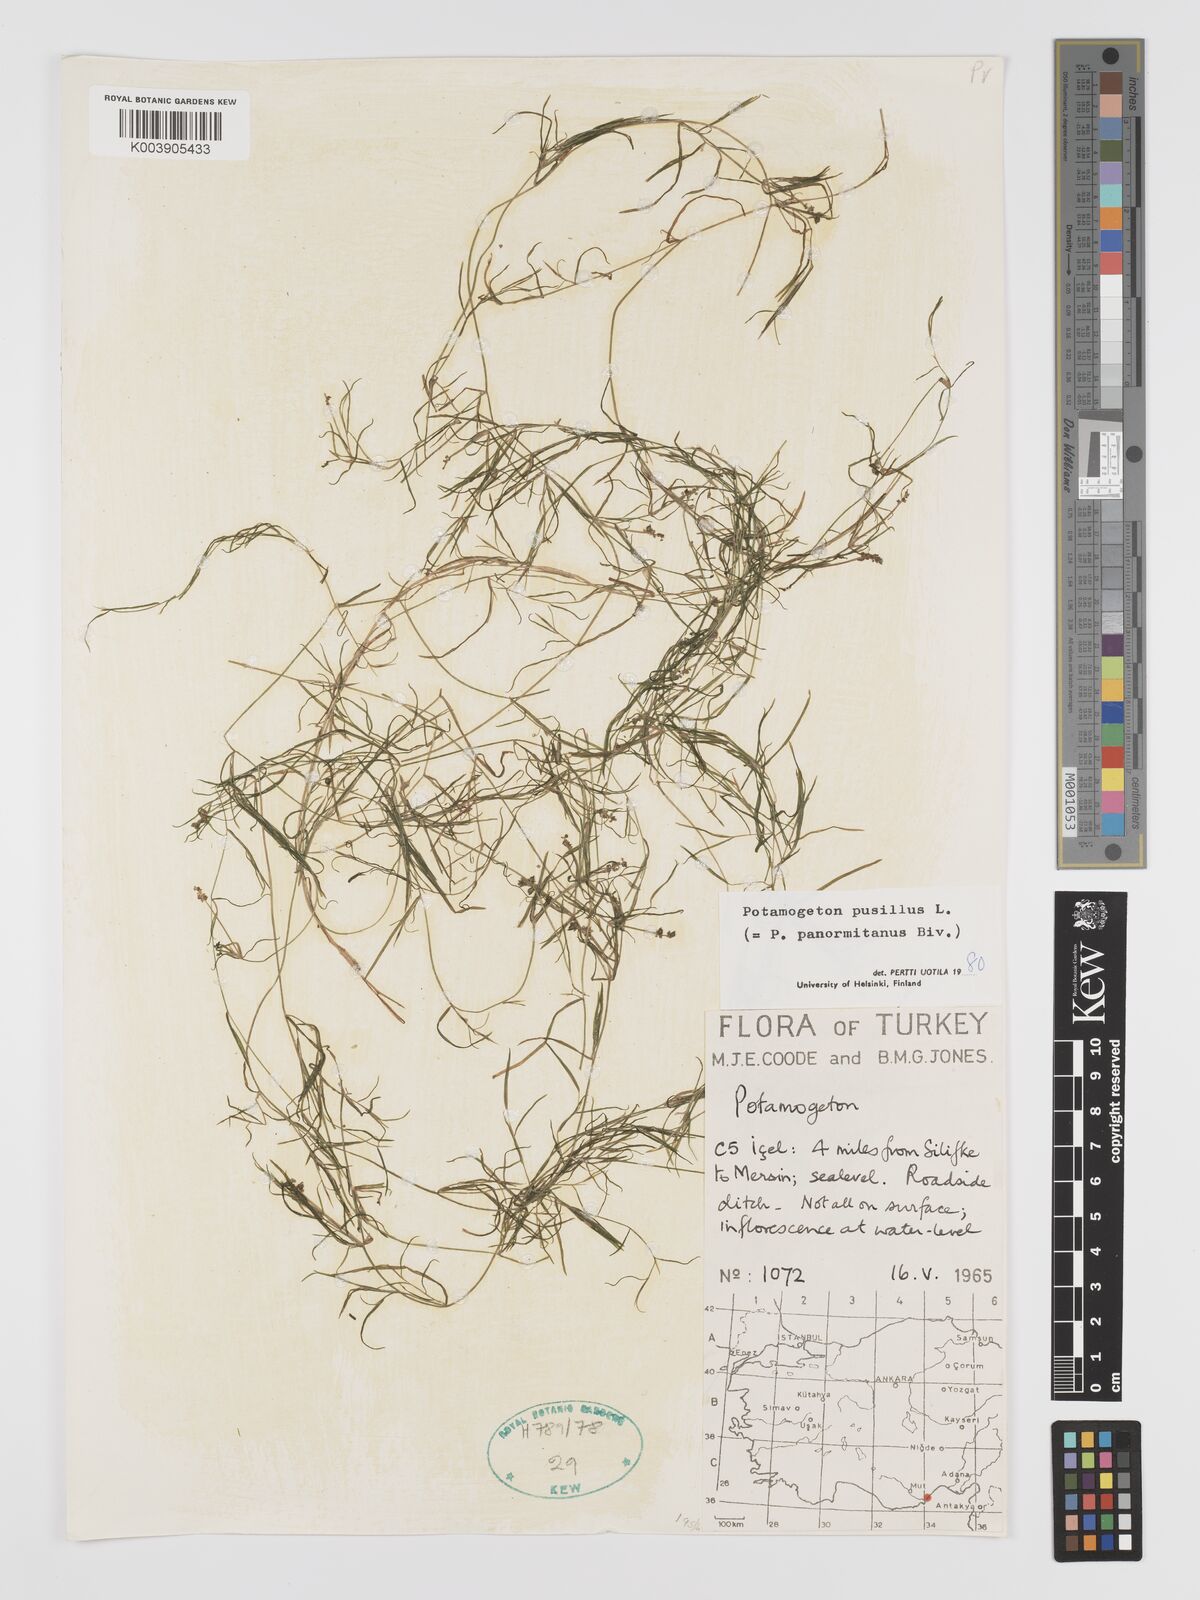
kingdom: Plantae
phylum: Tracheophyta
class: Liliopsida
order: Alismatales
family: Potamogetonaceae
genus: Potamogeton
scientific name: Potamogeton pusillus
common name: Lesser pondweed
